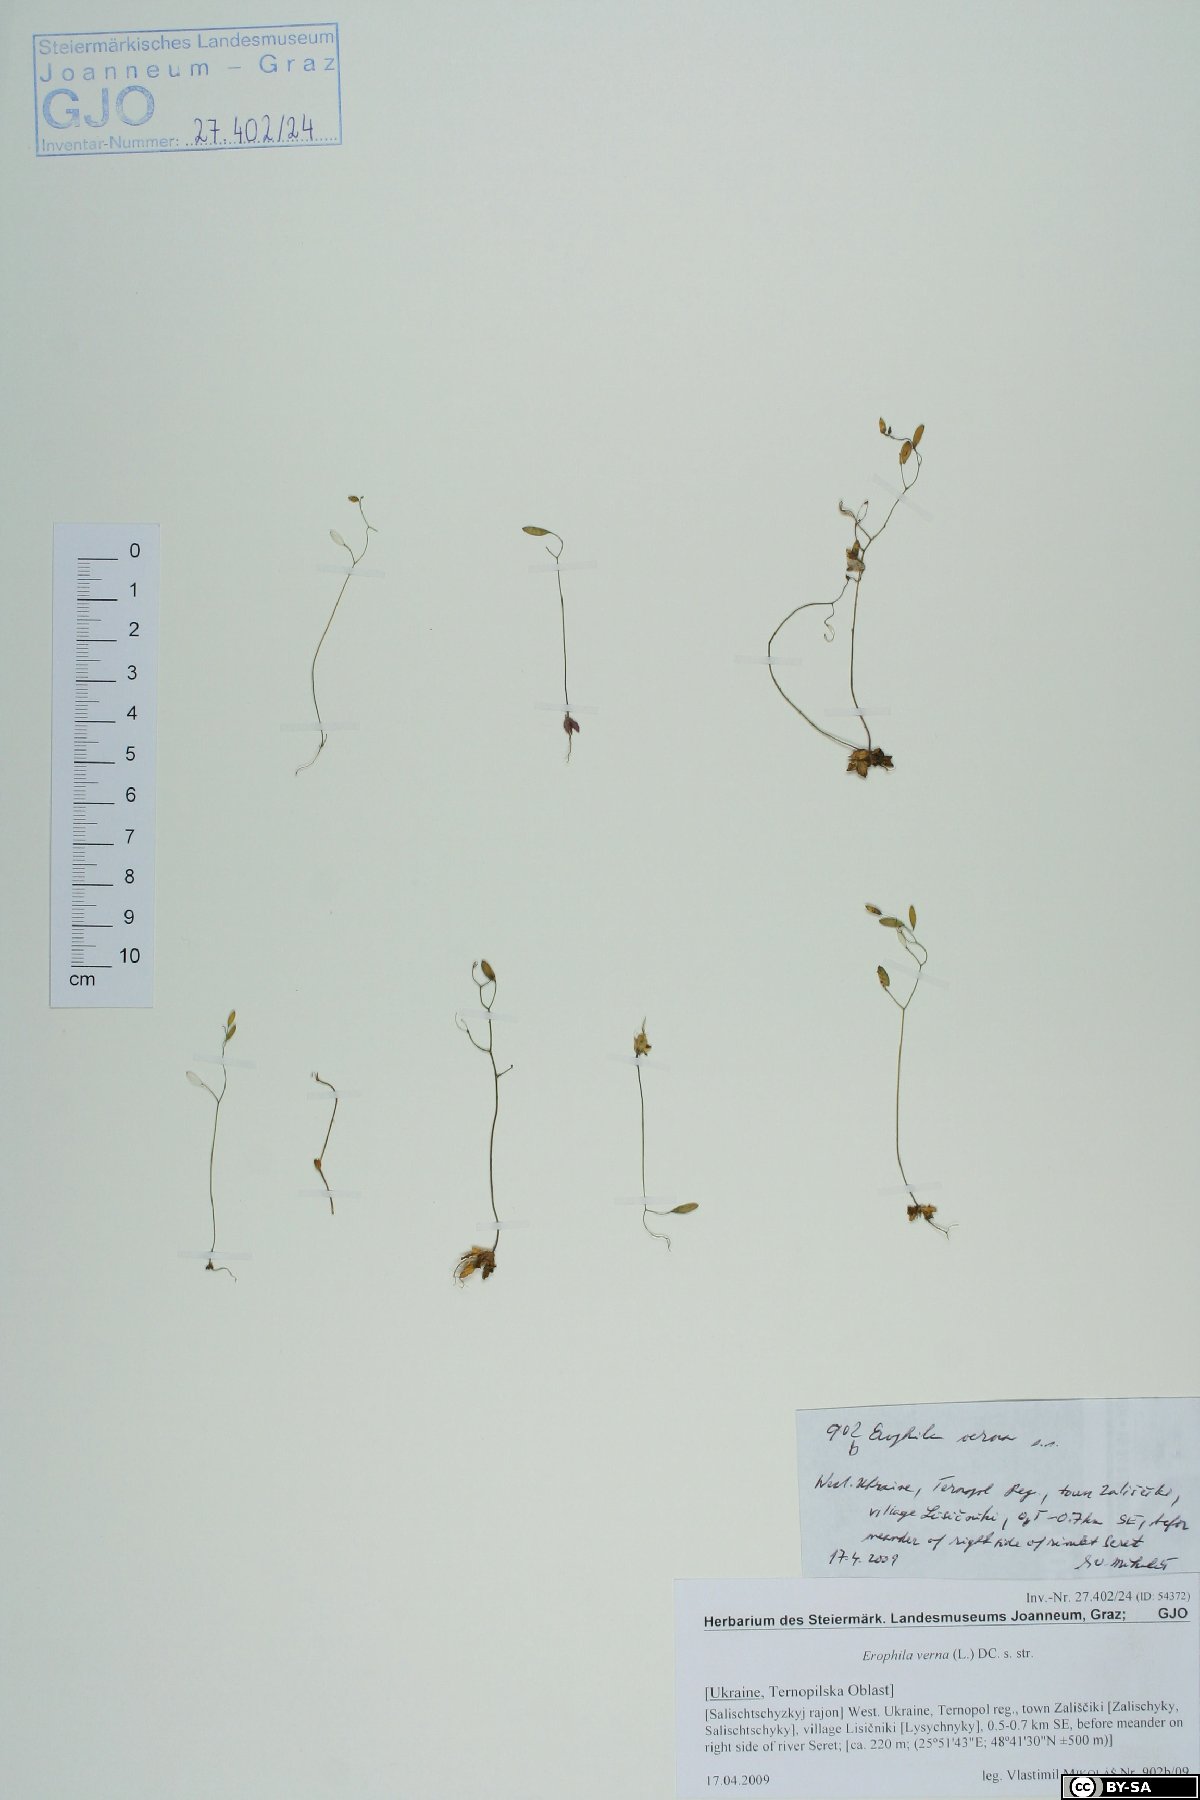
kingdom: Plantae
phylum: Tracheophyta
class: Magnoliopsida
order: Brassicales
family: Brassicaceae
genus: Draba
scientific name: Draba verna
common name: Spring draba
